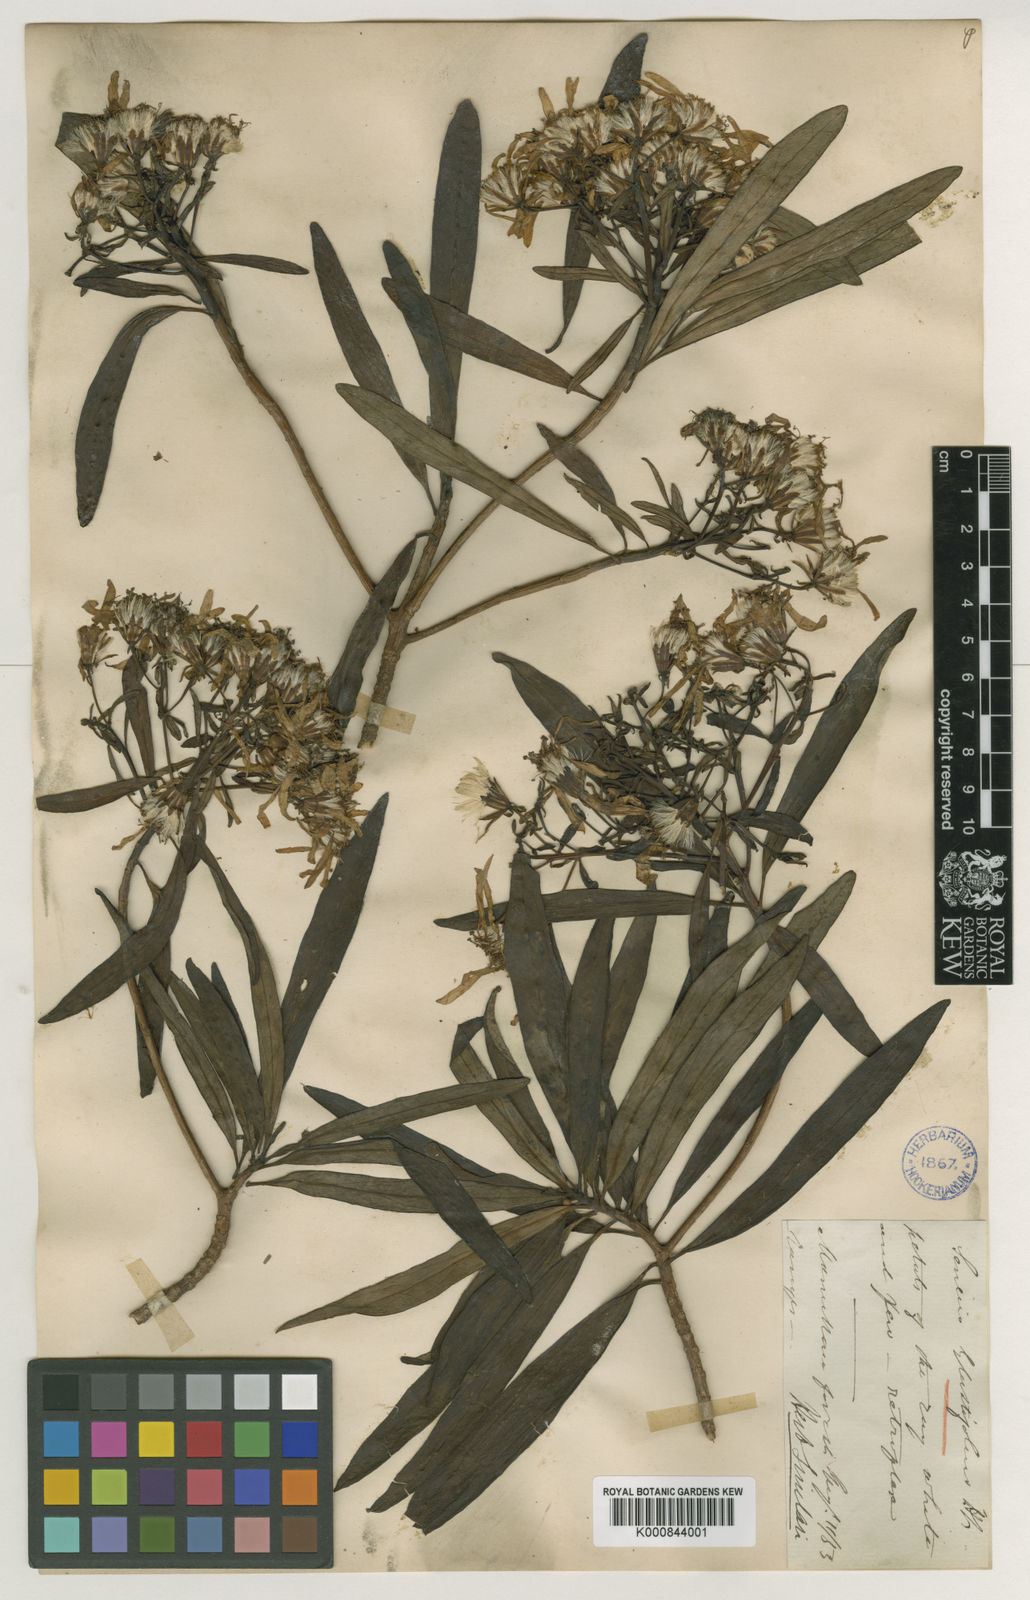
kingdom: Plantae
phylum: Tracheophyta
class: Magnoliopsida
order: Asterales
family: Asteraceae
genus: Brachyglottis
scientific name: Brachyglottis kirkii
